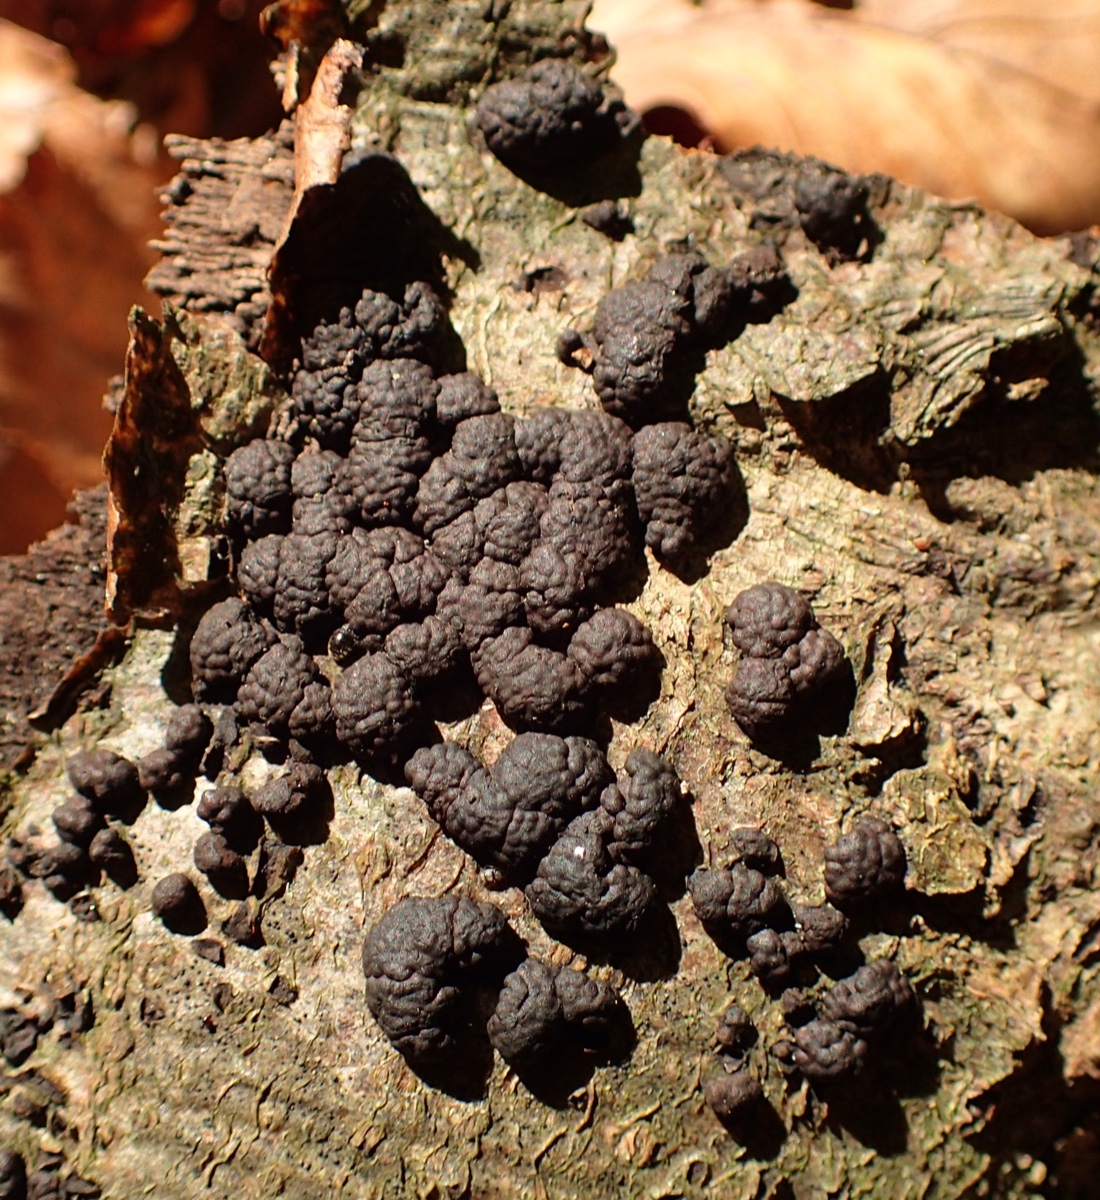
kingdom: Fungi
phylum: Ascomycota
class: Sordariomycetes
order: Xylariales
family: Hypoxylaceae
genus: Jackrogersella
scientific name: Jackrogersella cohaerens
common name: sammenflydende kulbær
